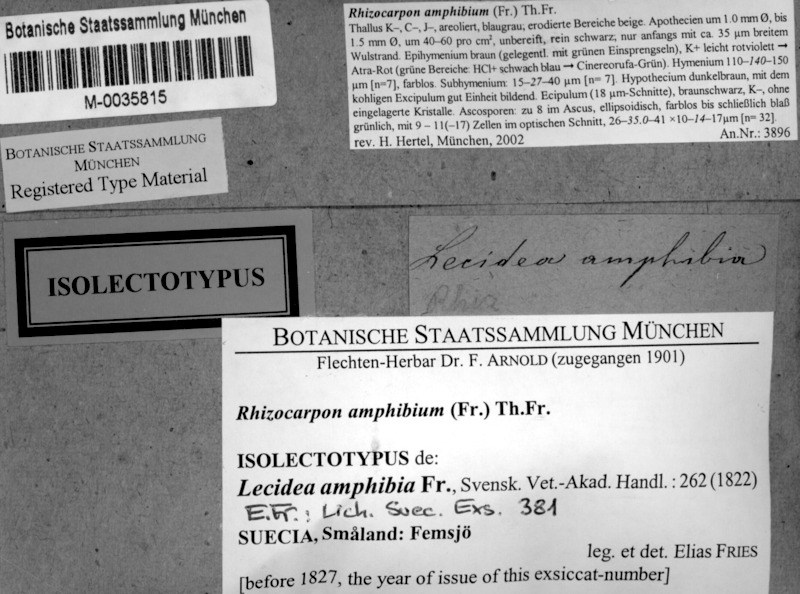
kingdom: Fungi
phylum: Ascomycota
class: Lecanoromycetes
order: Rhizocarpales
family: Rhizocarpaceae
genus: Rhizocarpon
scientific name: Rhizocarpon amphibium
